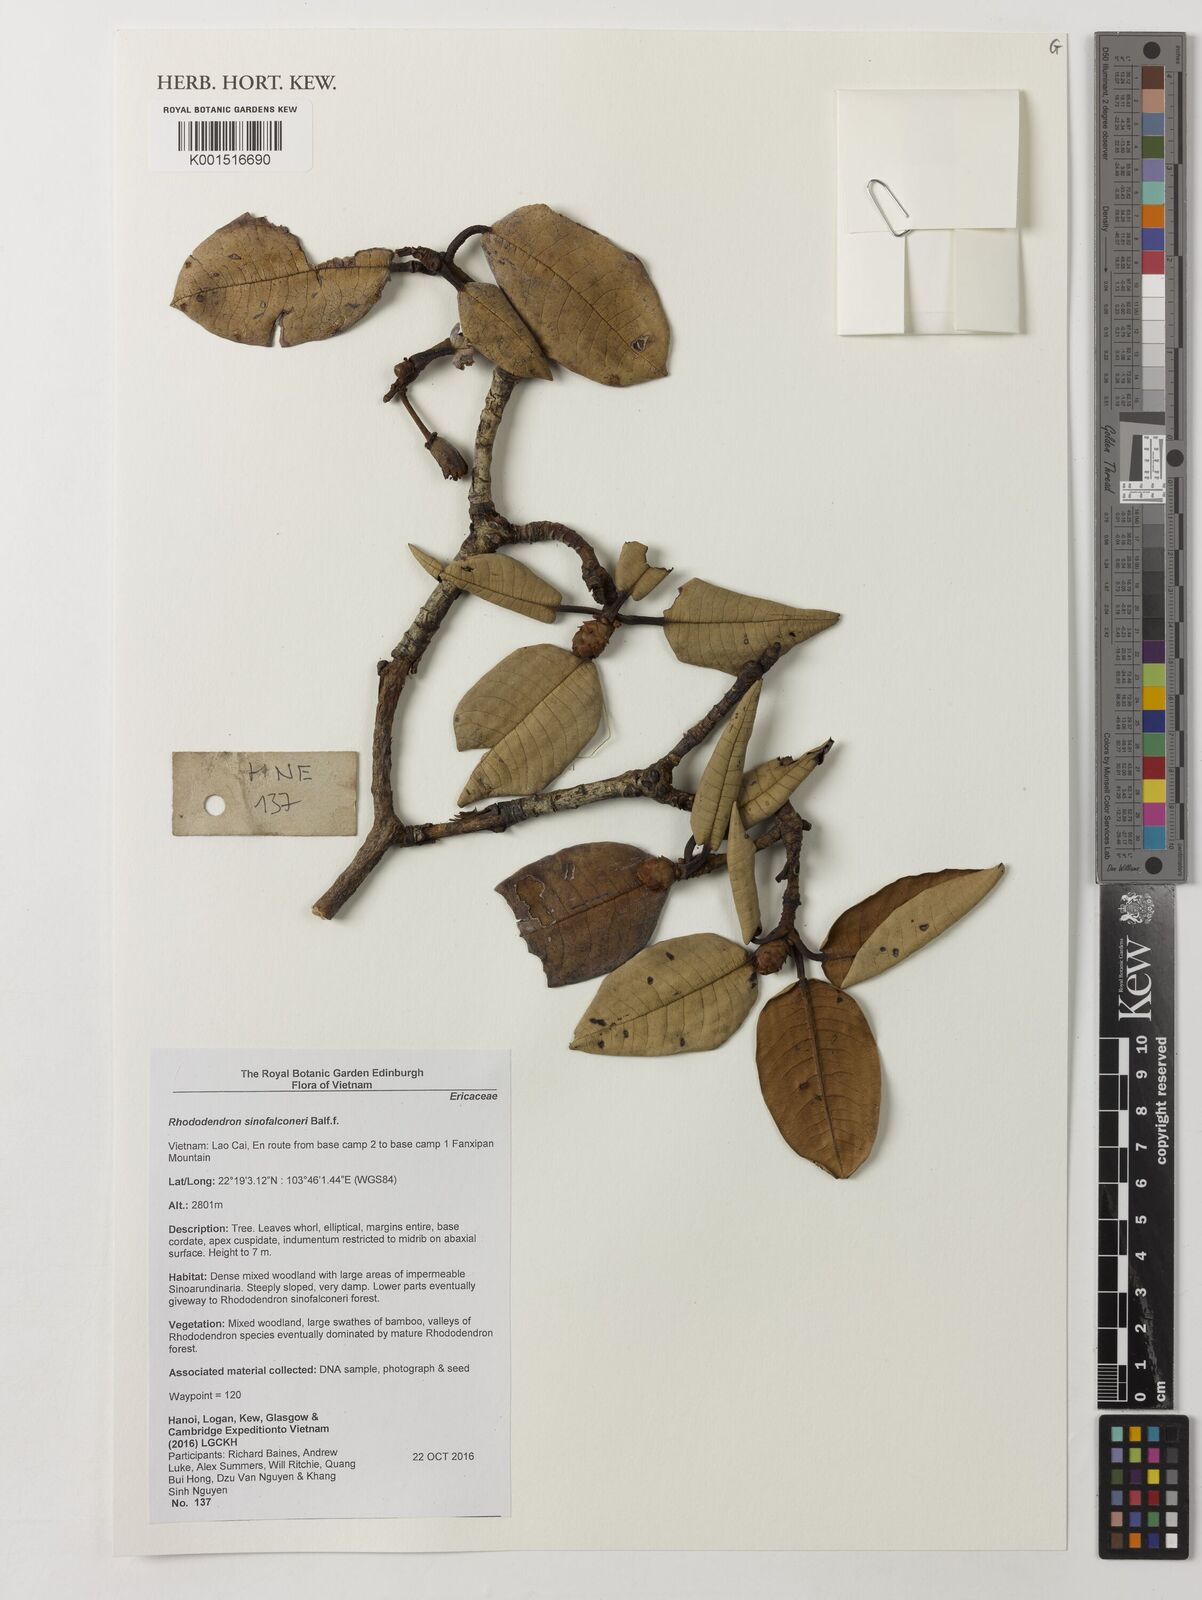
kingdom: Plantae
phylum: Tracheophyta
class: Magnoliopsida
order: Ericales
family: Ericaceae
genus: Rhododendron
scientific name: Rhododendron sinofalconeri
